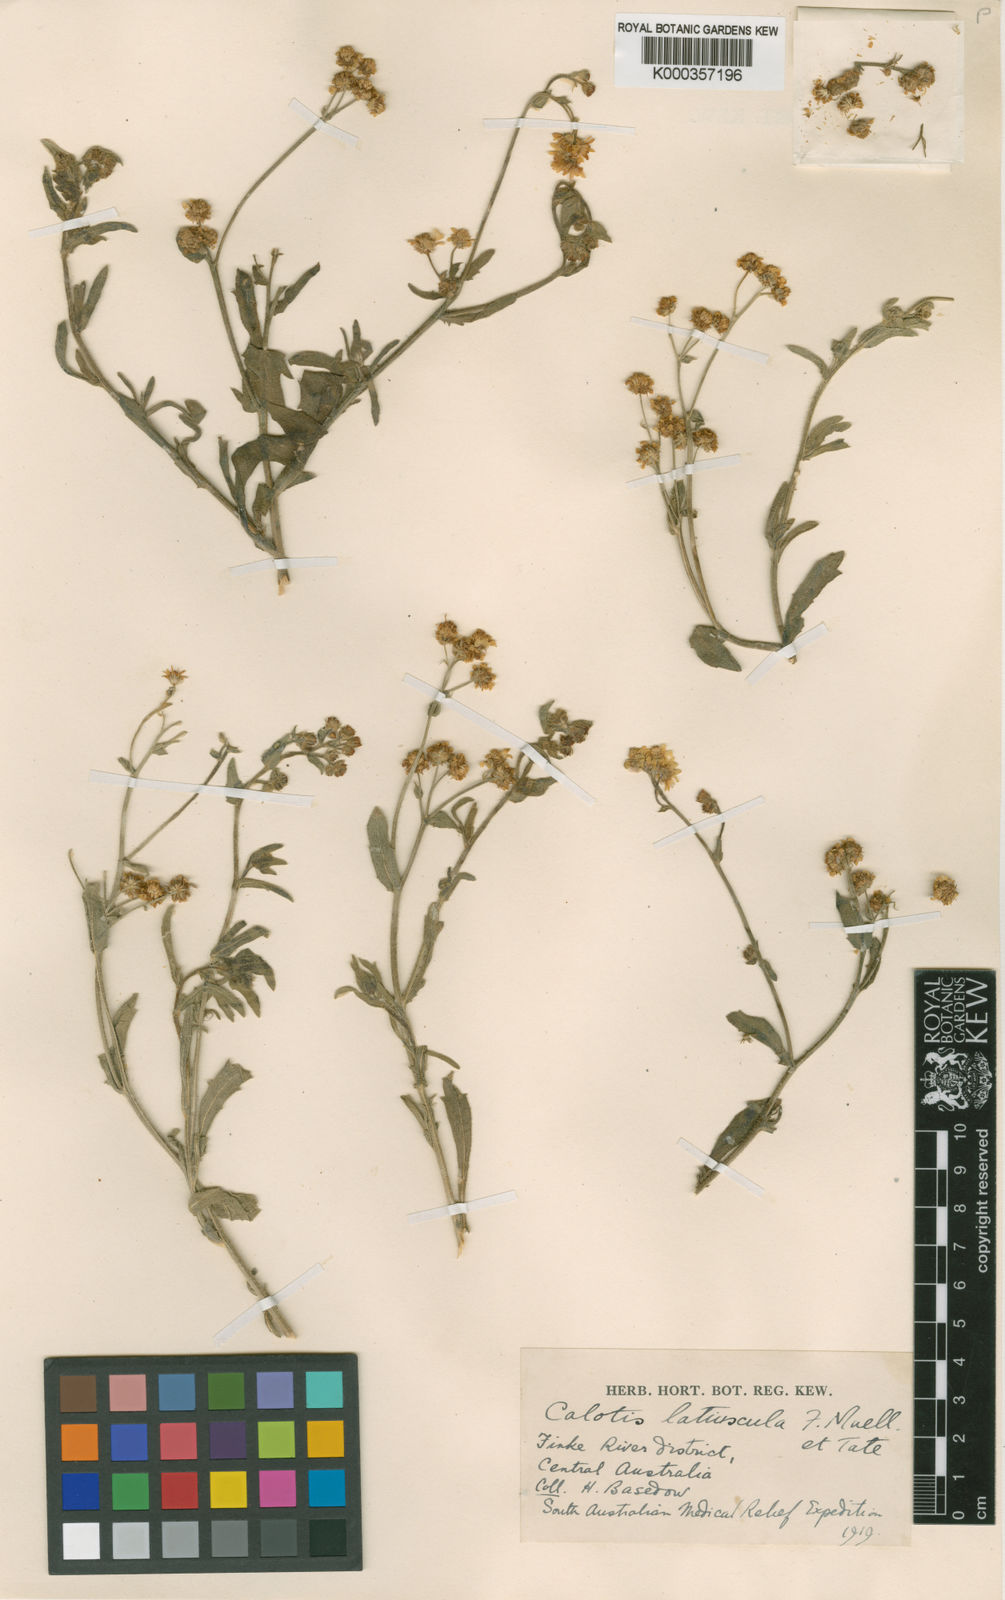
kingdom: Plantae
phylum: Tracheophyta
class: Magnoliopsida
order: Asterales
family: Asteraceae
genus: Calotis
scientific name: Calotis latiuscula
